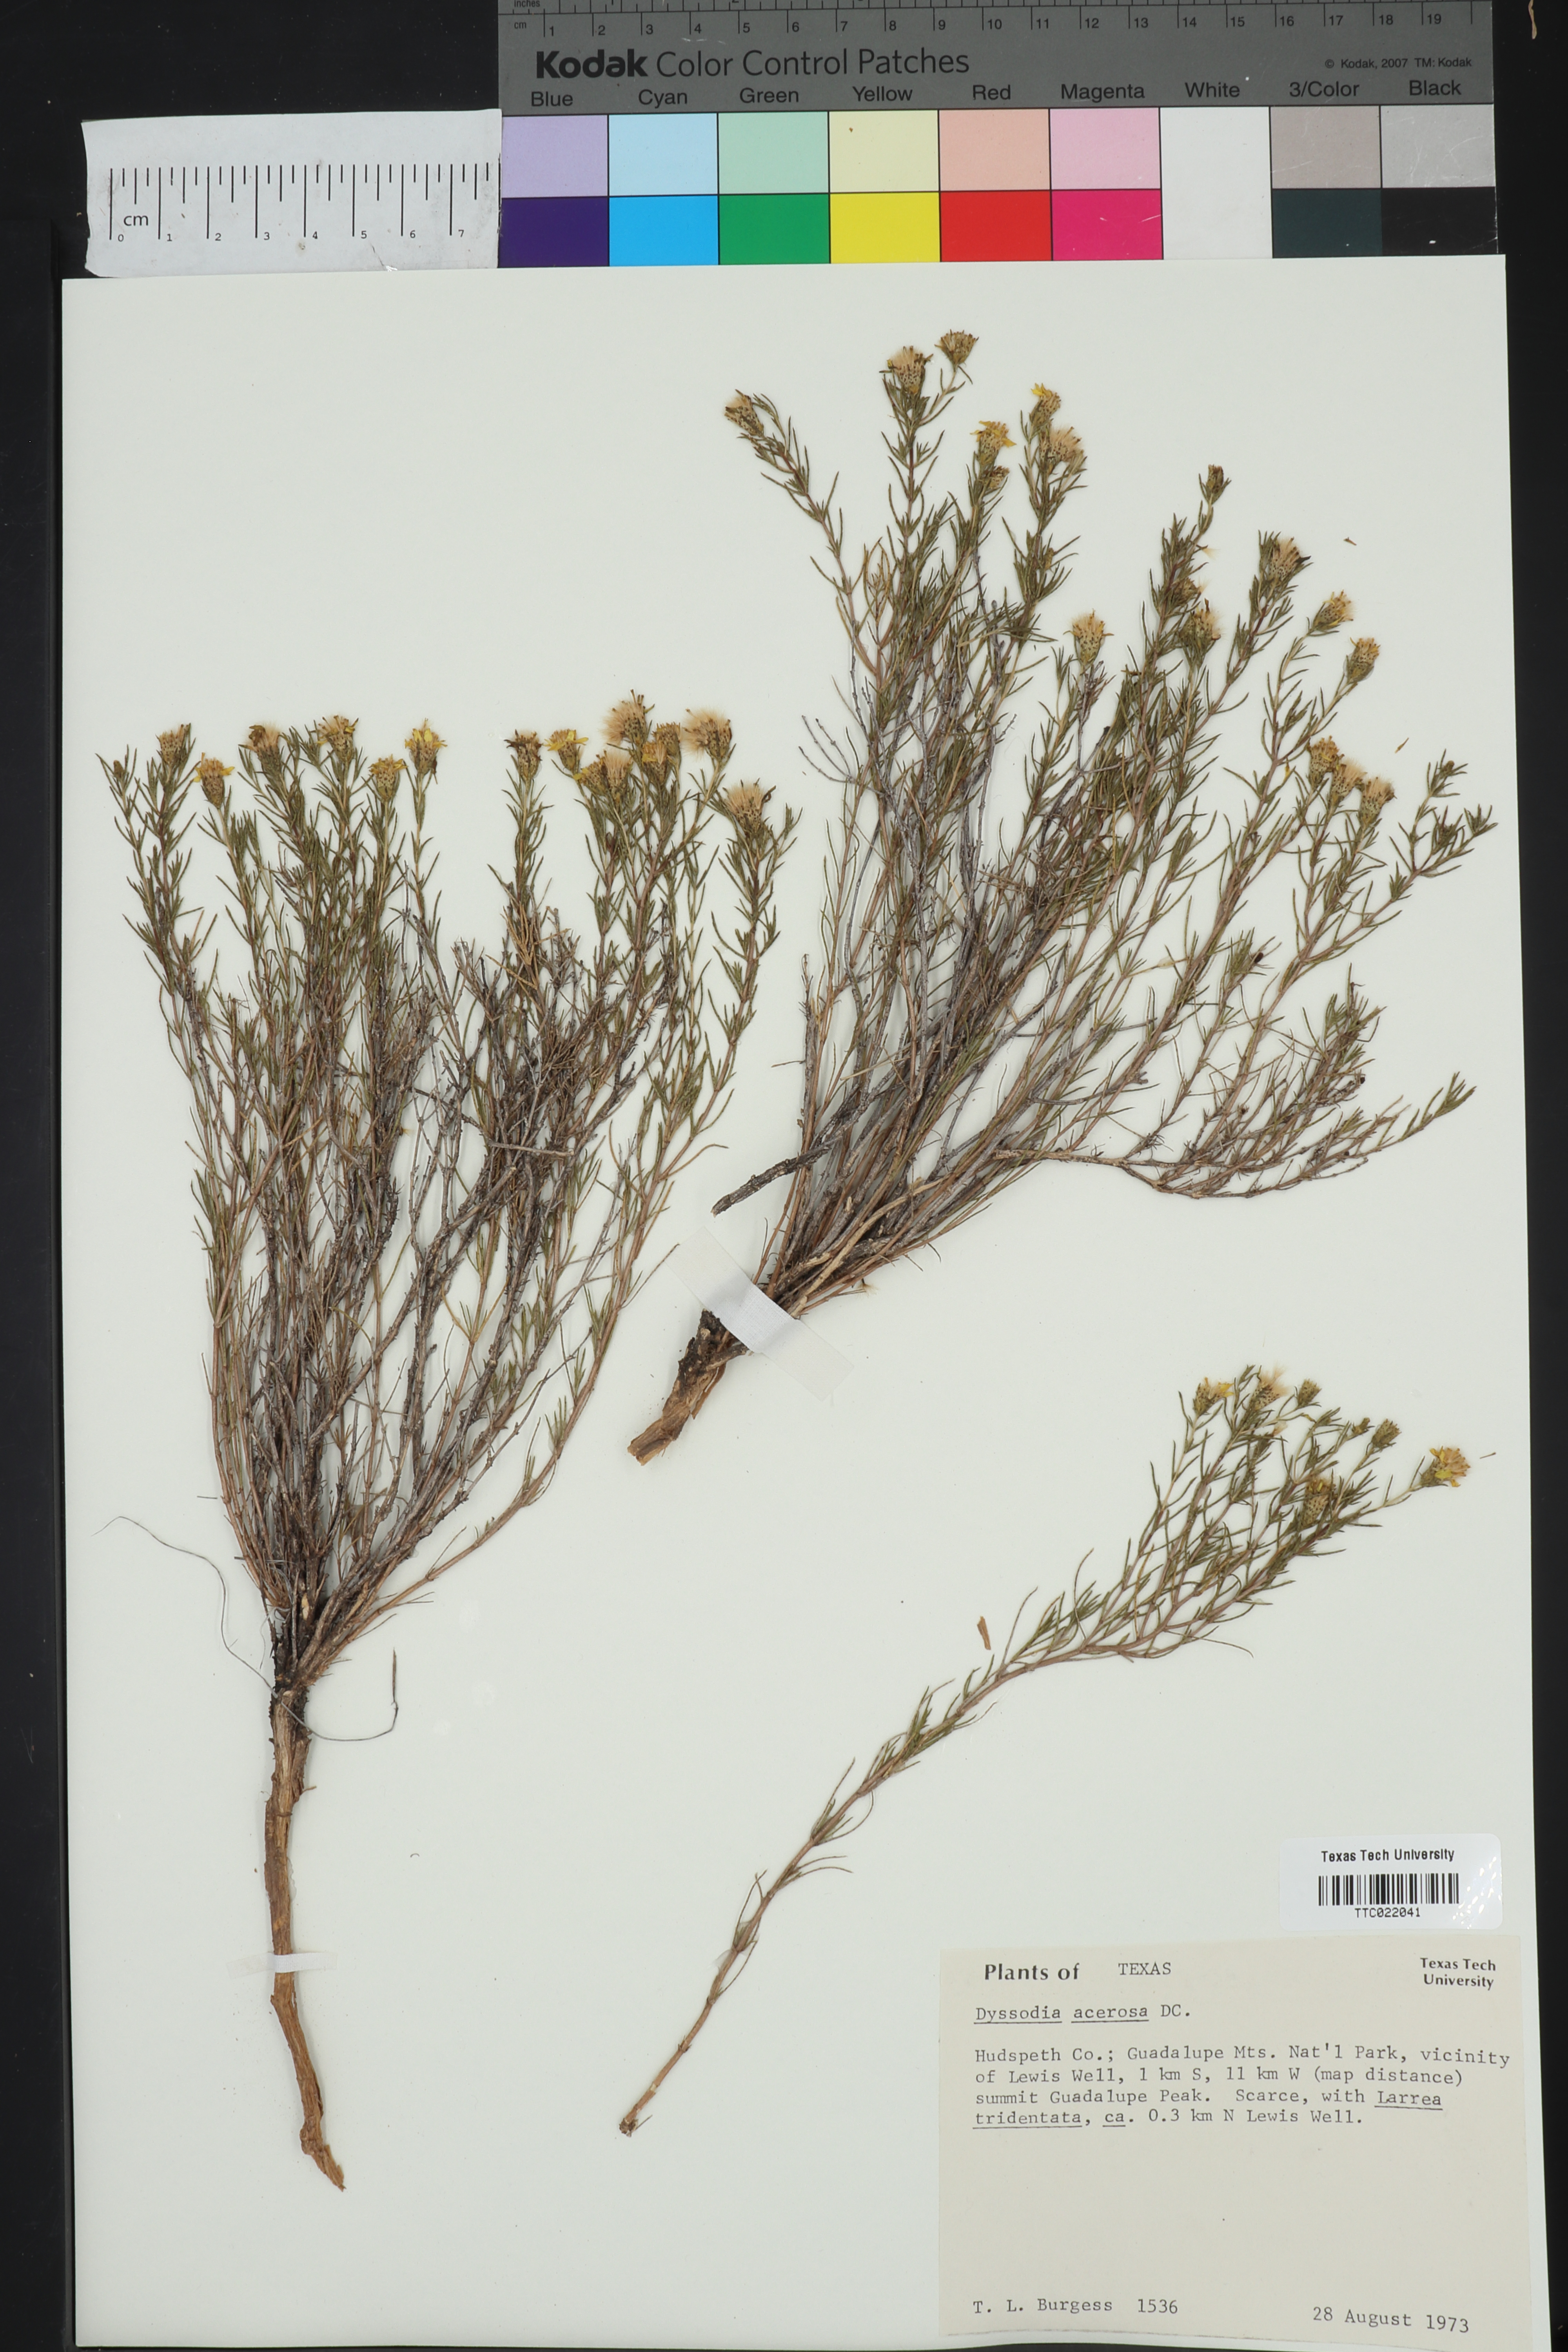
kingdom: Plantae
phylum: Tracheophyta
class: Magnoliopsida
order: Asterales
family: Asteraceae
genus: Thymophylla
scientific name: Thymophylla acerosa
